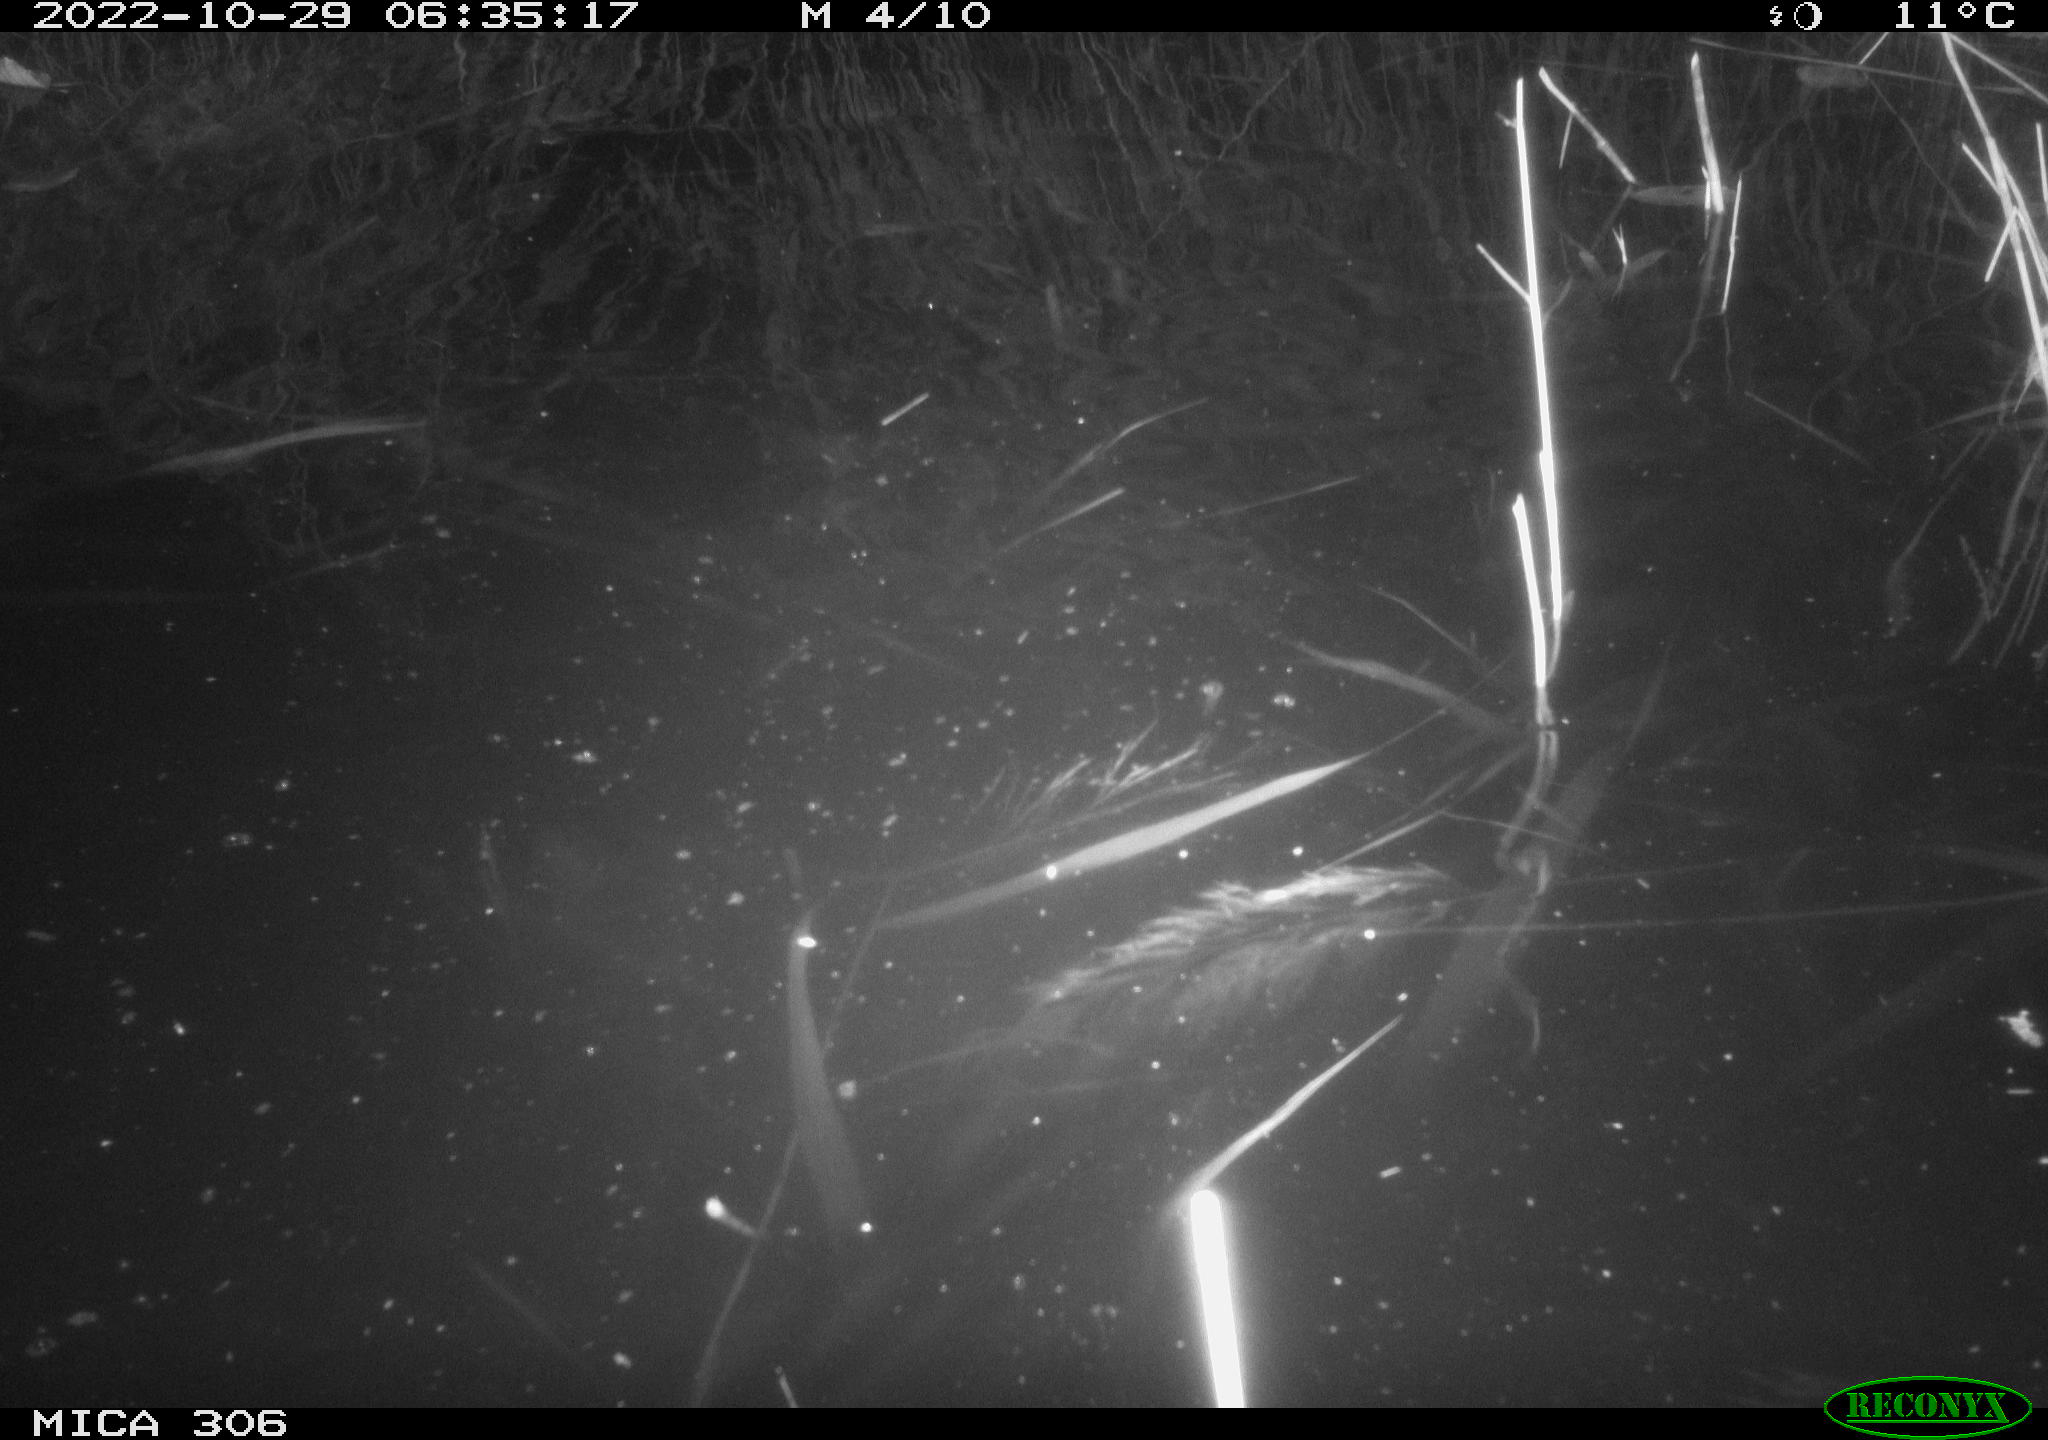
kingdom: Animalia
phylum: Chordata
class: Mammalia
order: Rodentia
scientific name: Rodentia
